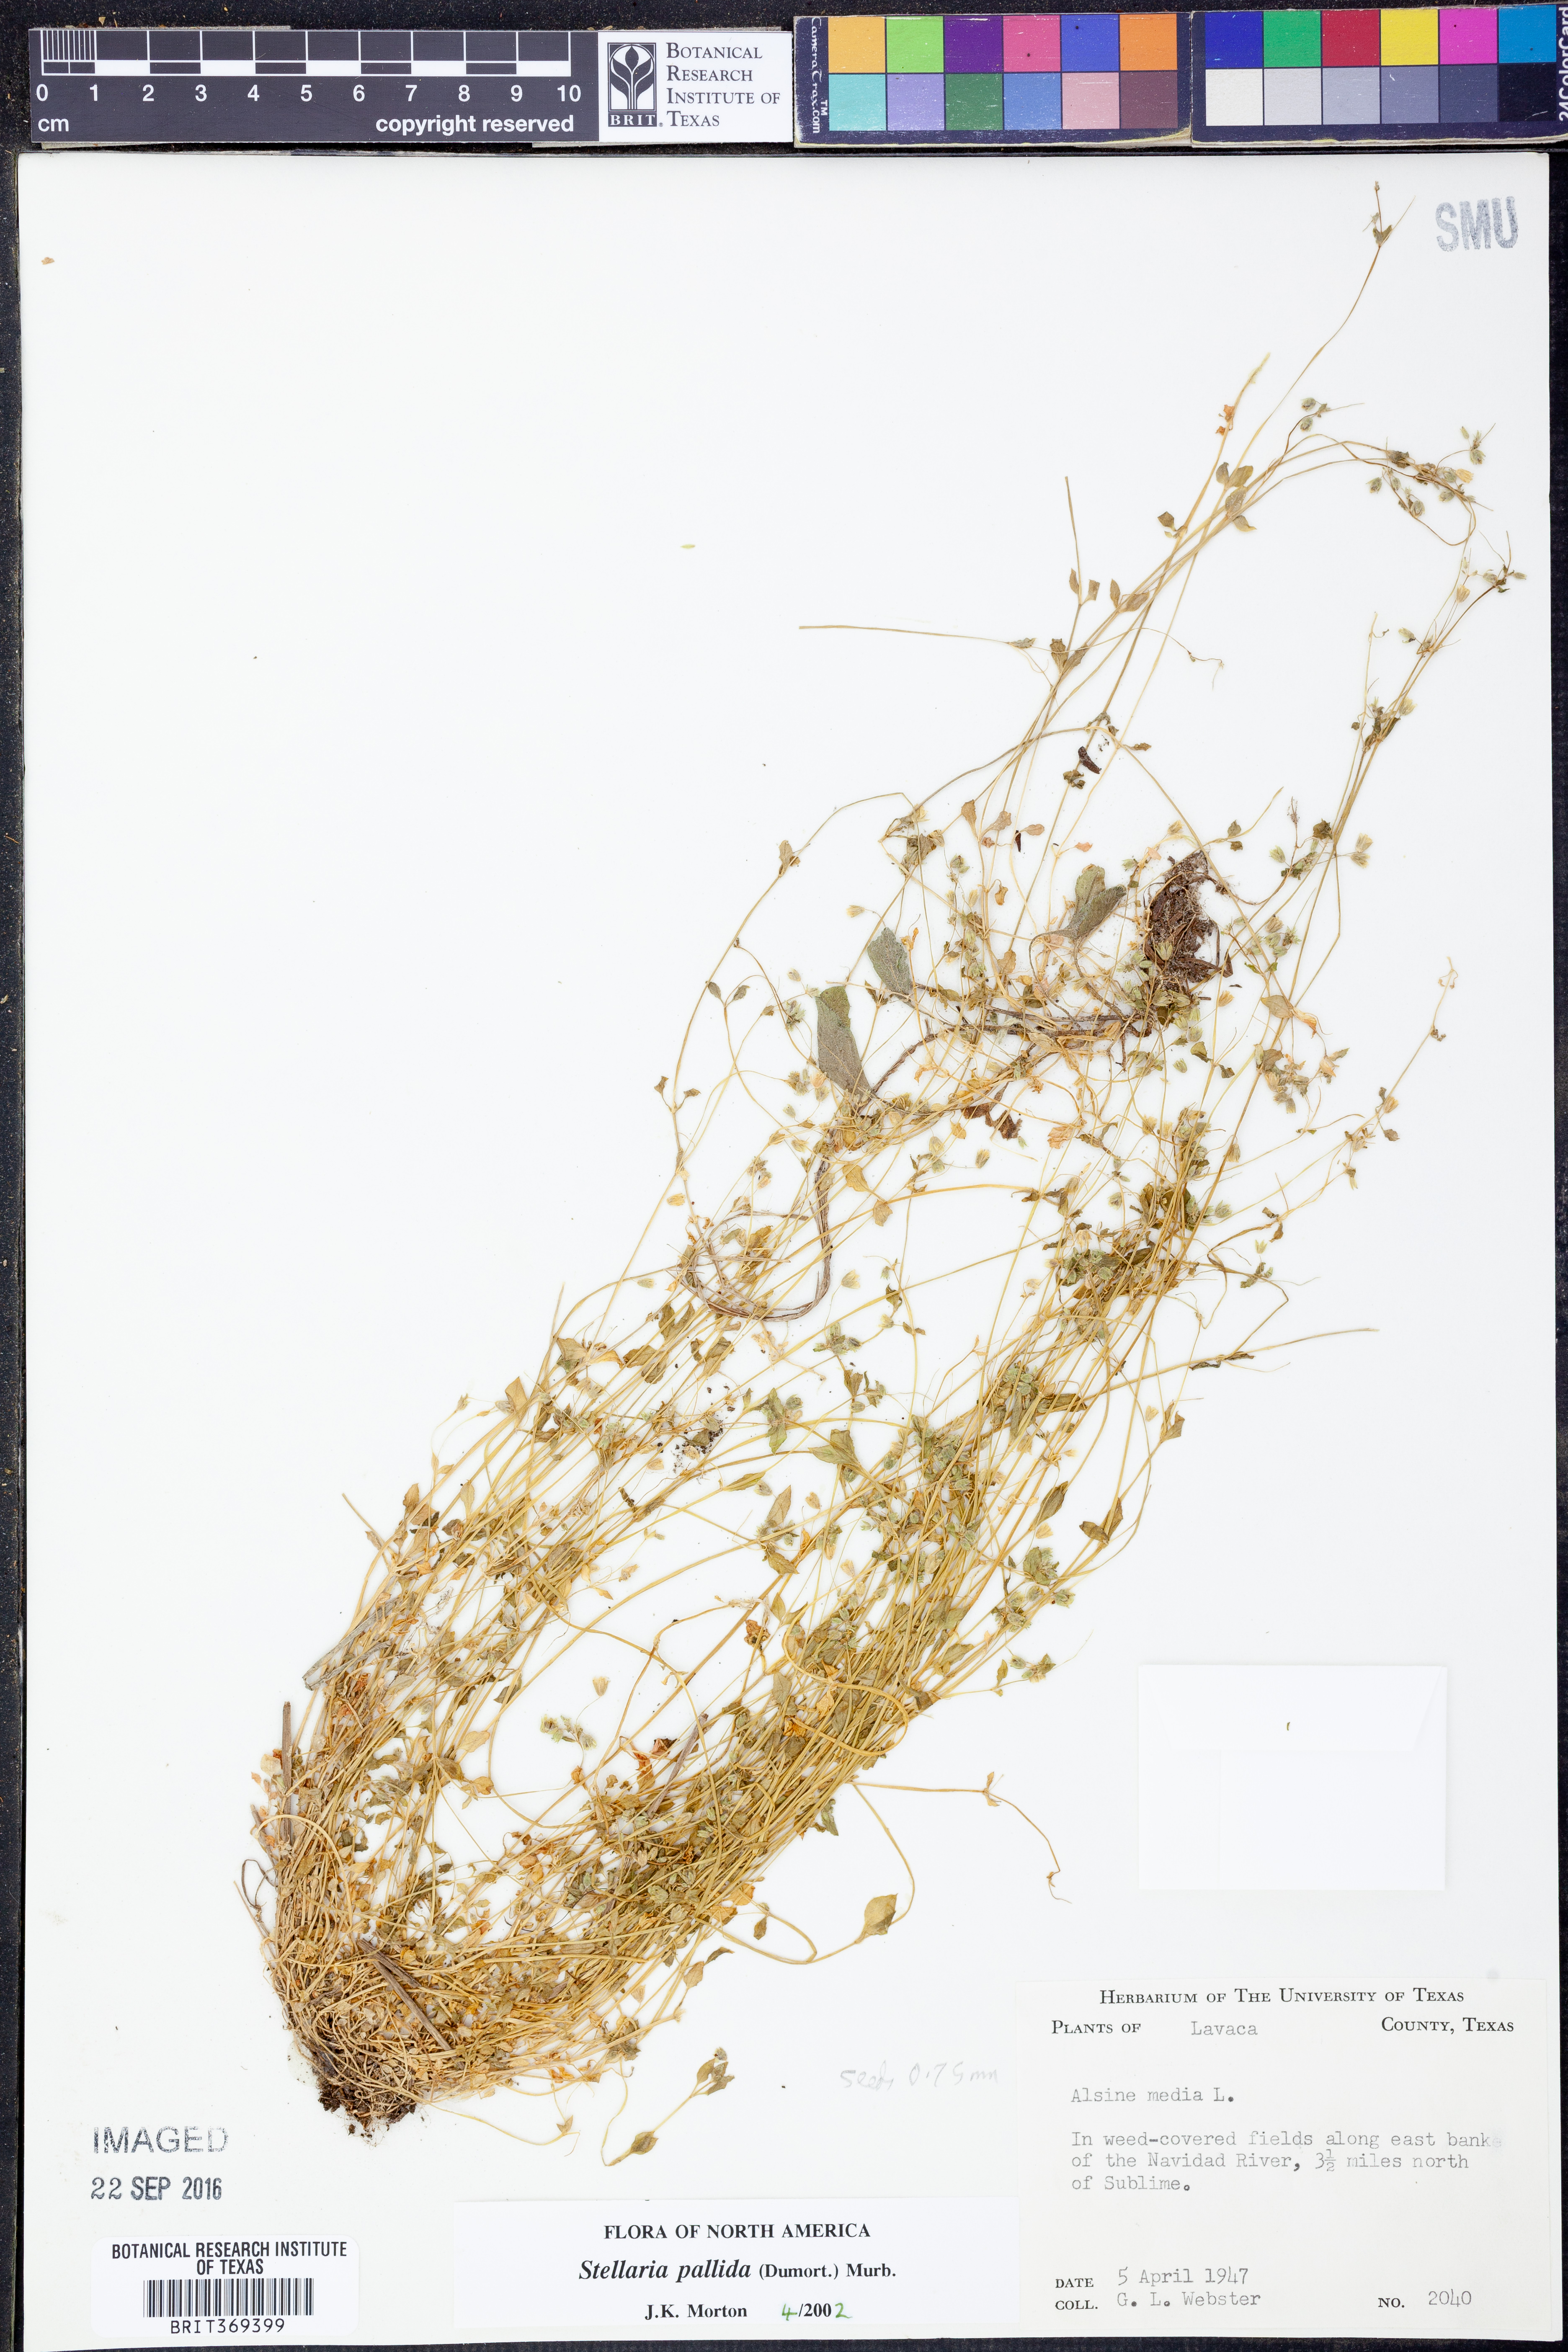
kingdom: Plantae
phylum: Tracheophyta
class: Magnoliopsida
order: Caryophyllales
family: Caryophyllaceae
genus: Stellaria
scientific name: Stellaria apetala
